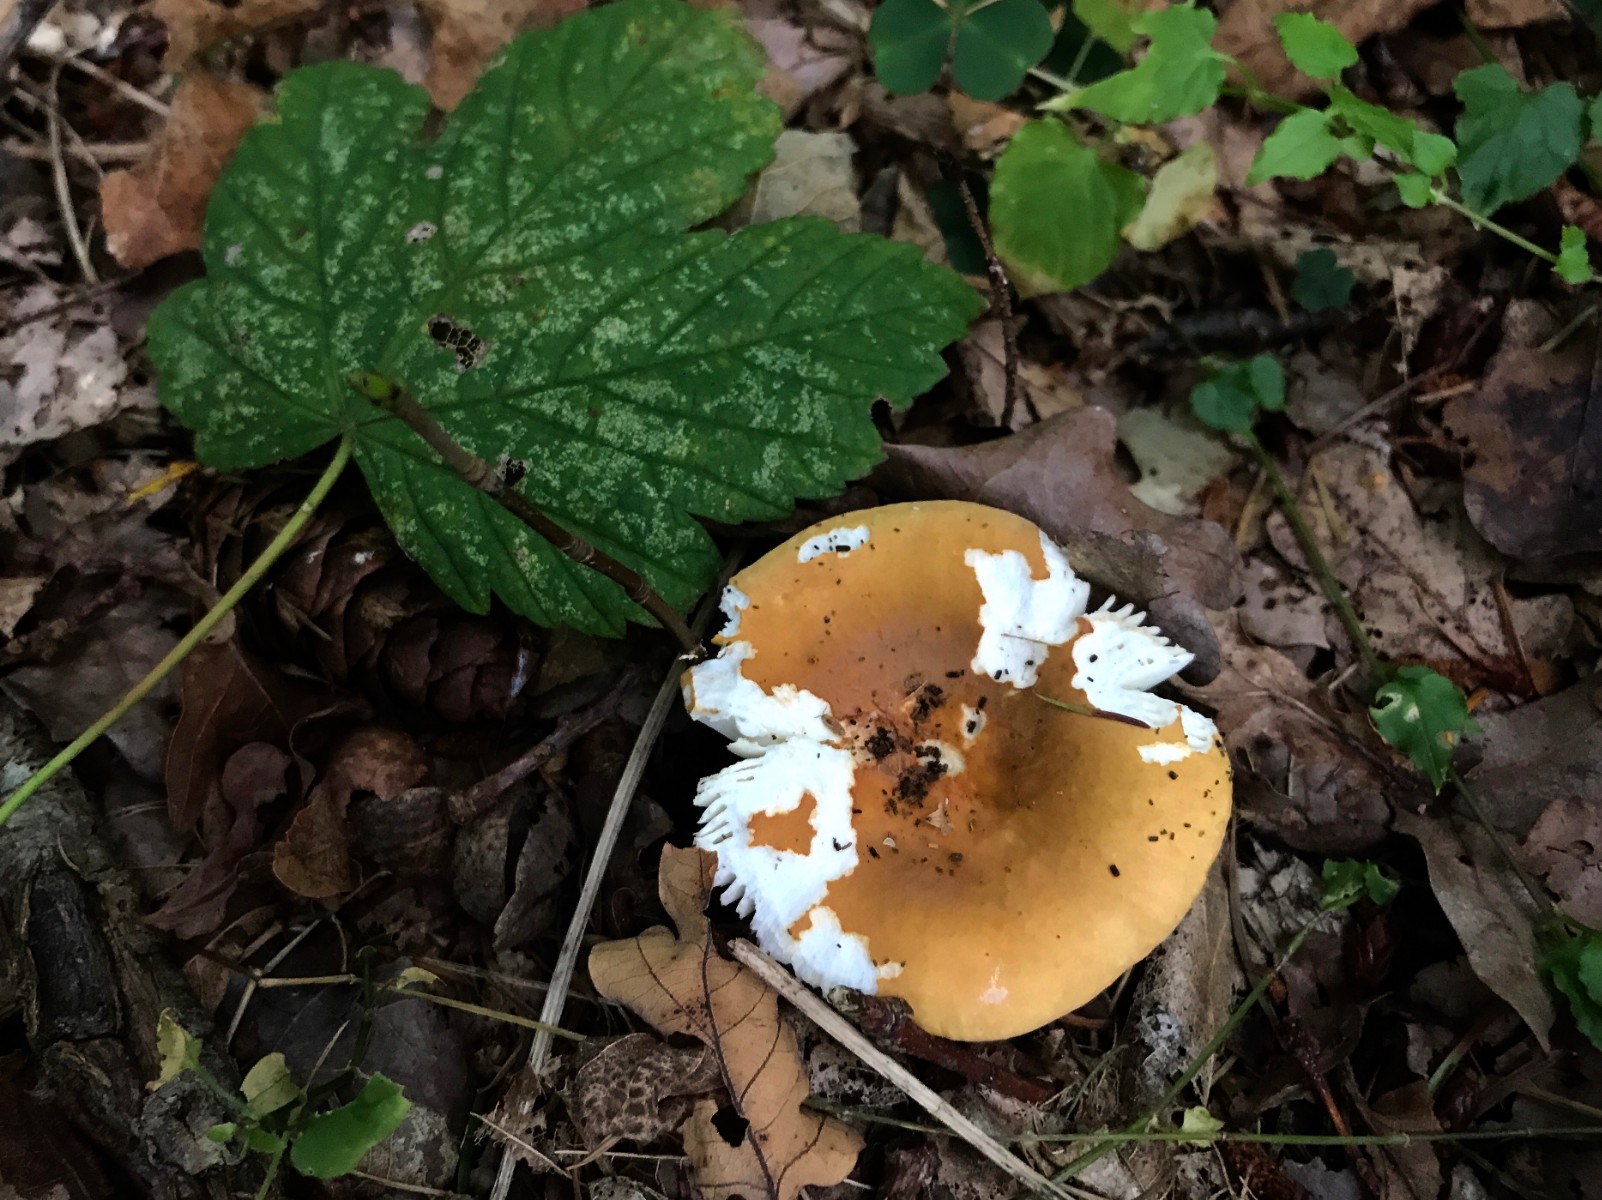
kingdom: Fungi
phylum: Basidiomycota
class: Agaricomycetes
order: Russulales
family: Russulaceae
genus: Russula
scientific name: Russula ochroleuca
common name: okkergul skørhat
